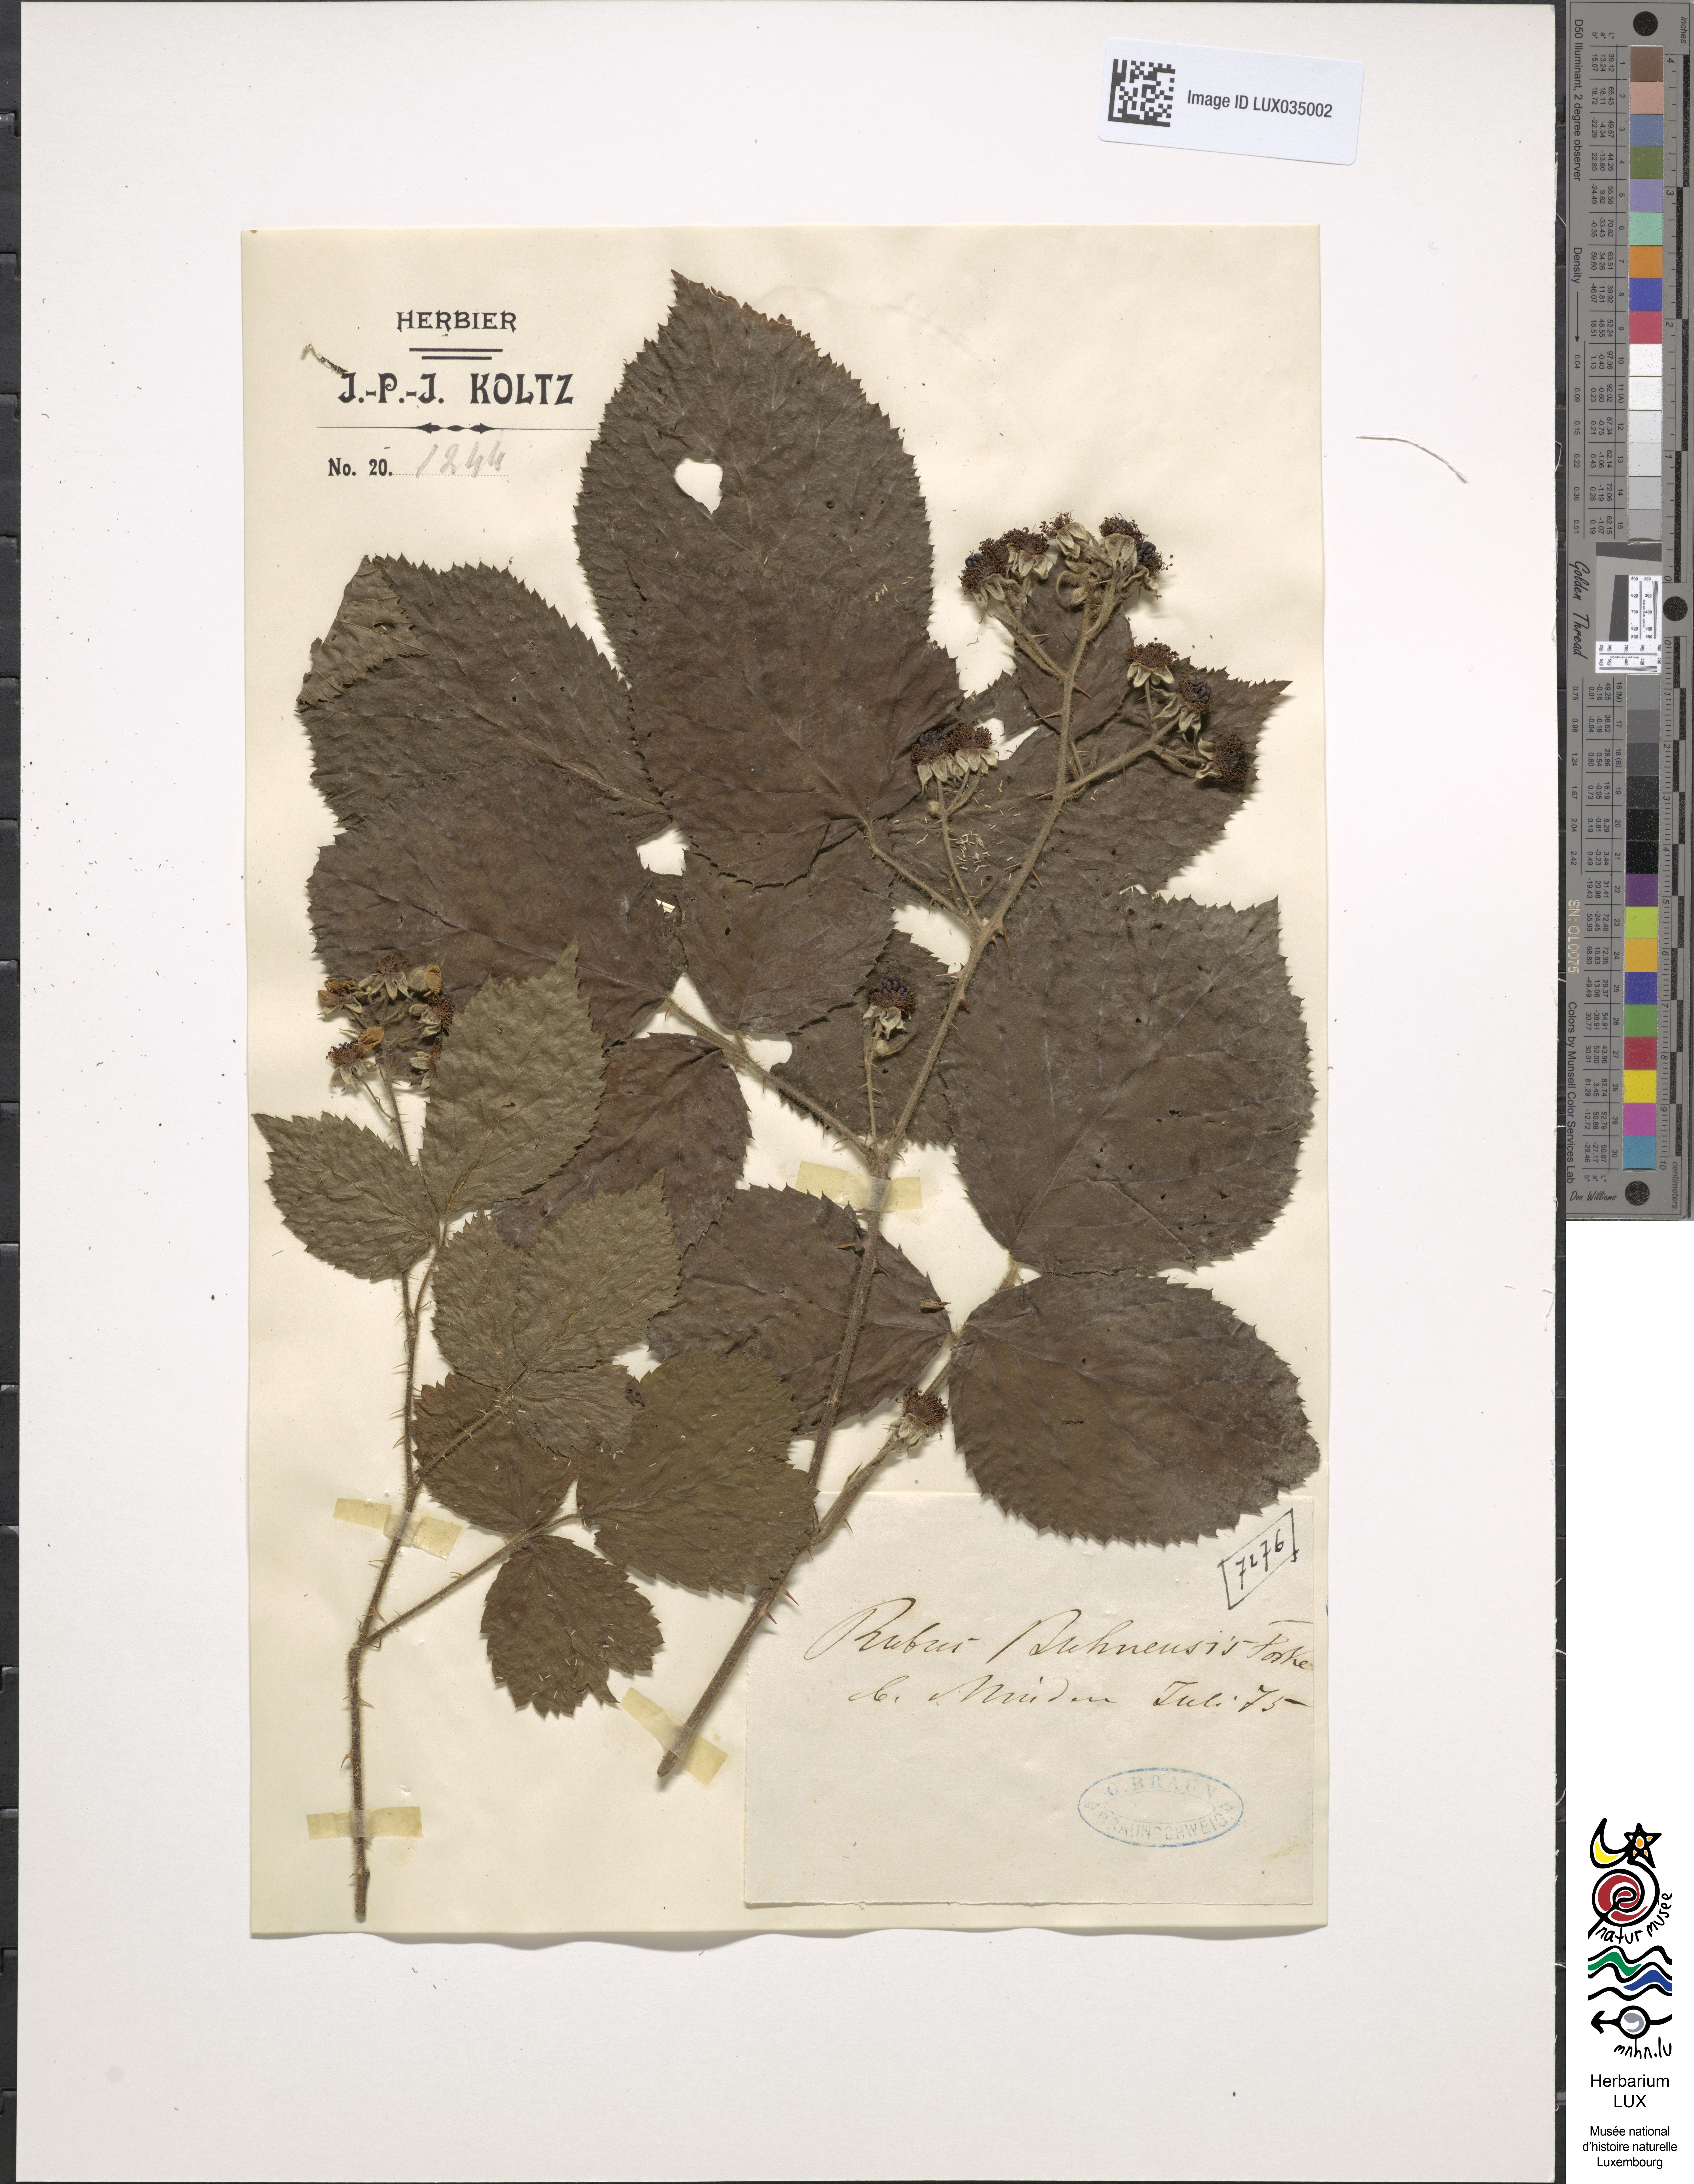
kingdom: Plantae
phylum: Tracheophyta
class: Magnoliopsida
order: Rosales
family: Rosaceae
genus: Rubus
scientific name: Rubus buhnensis
